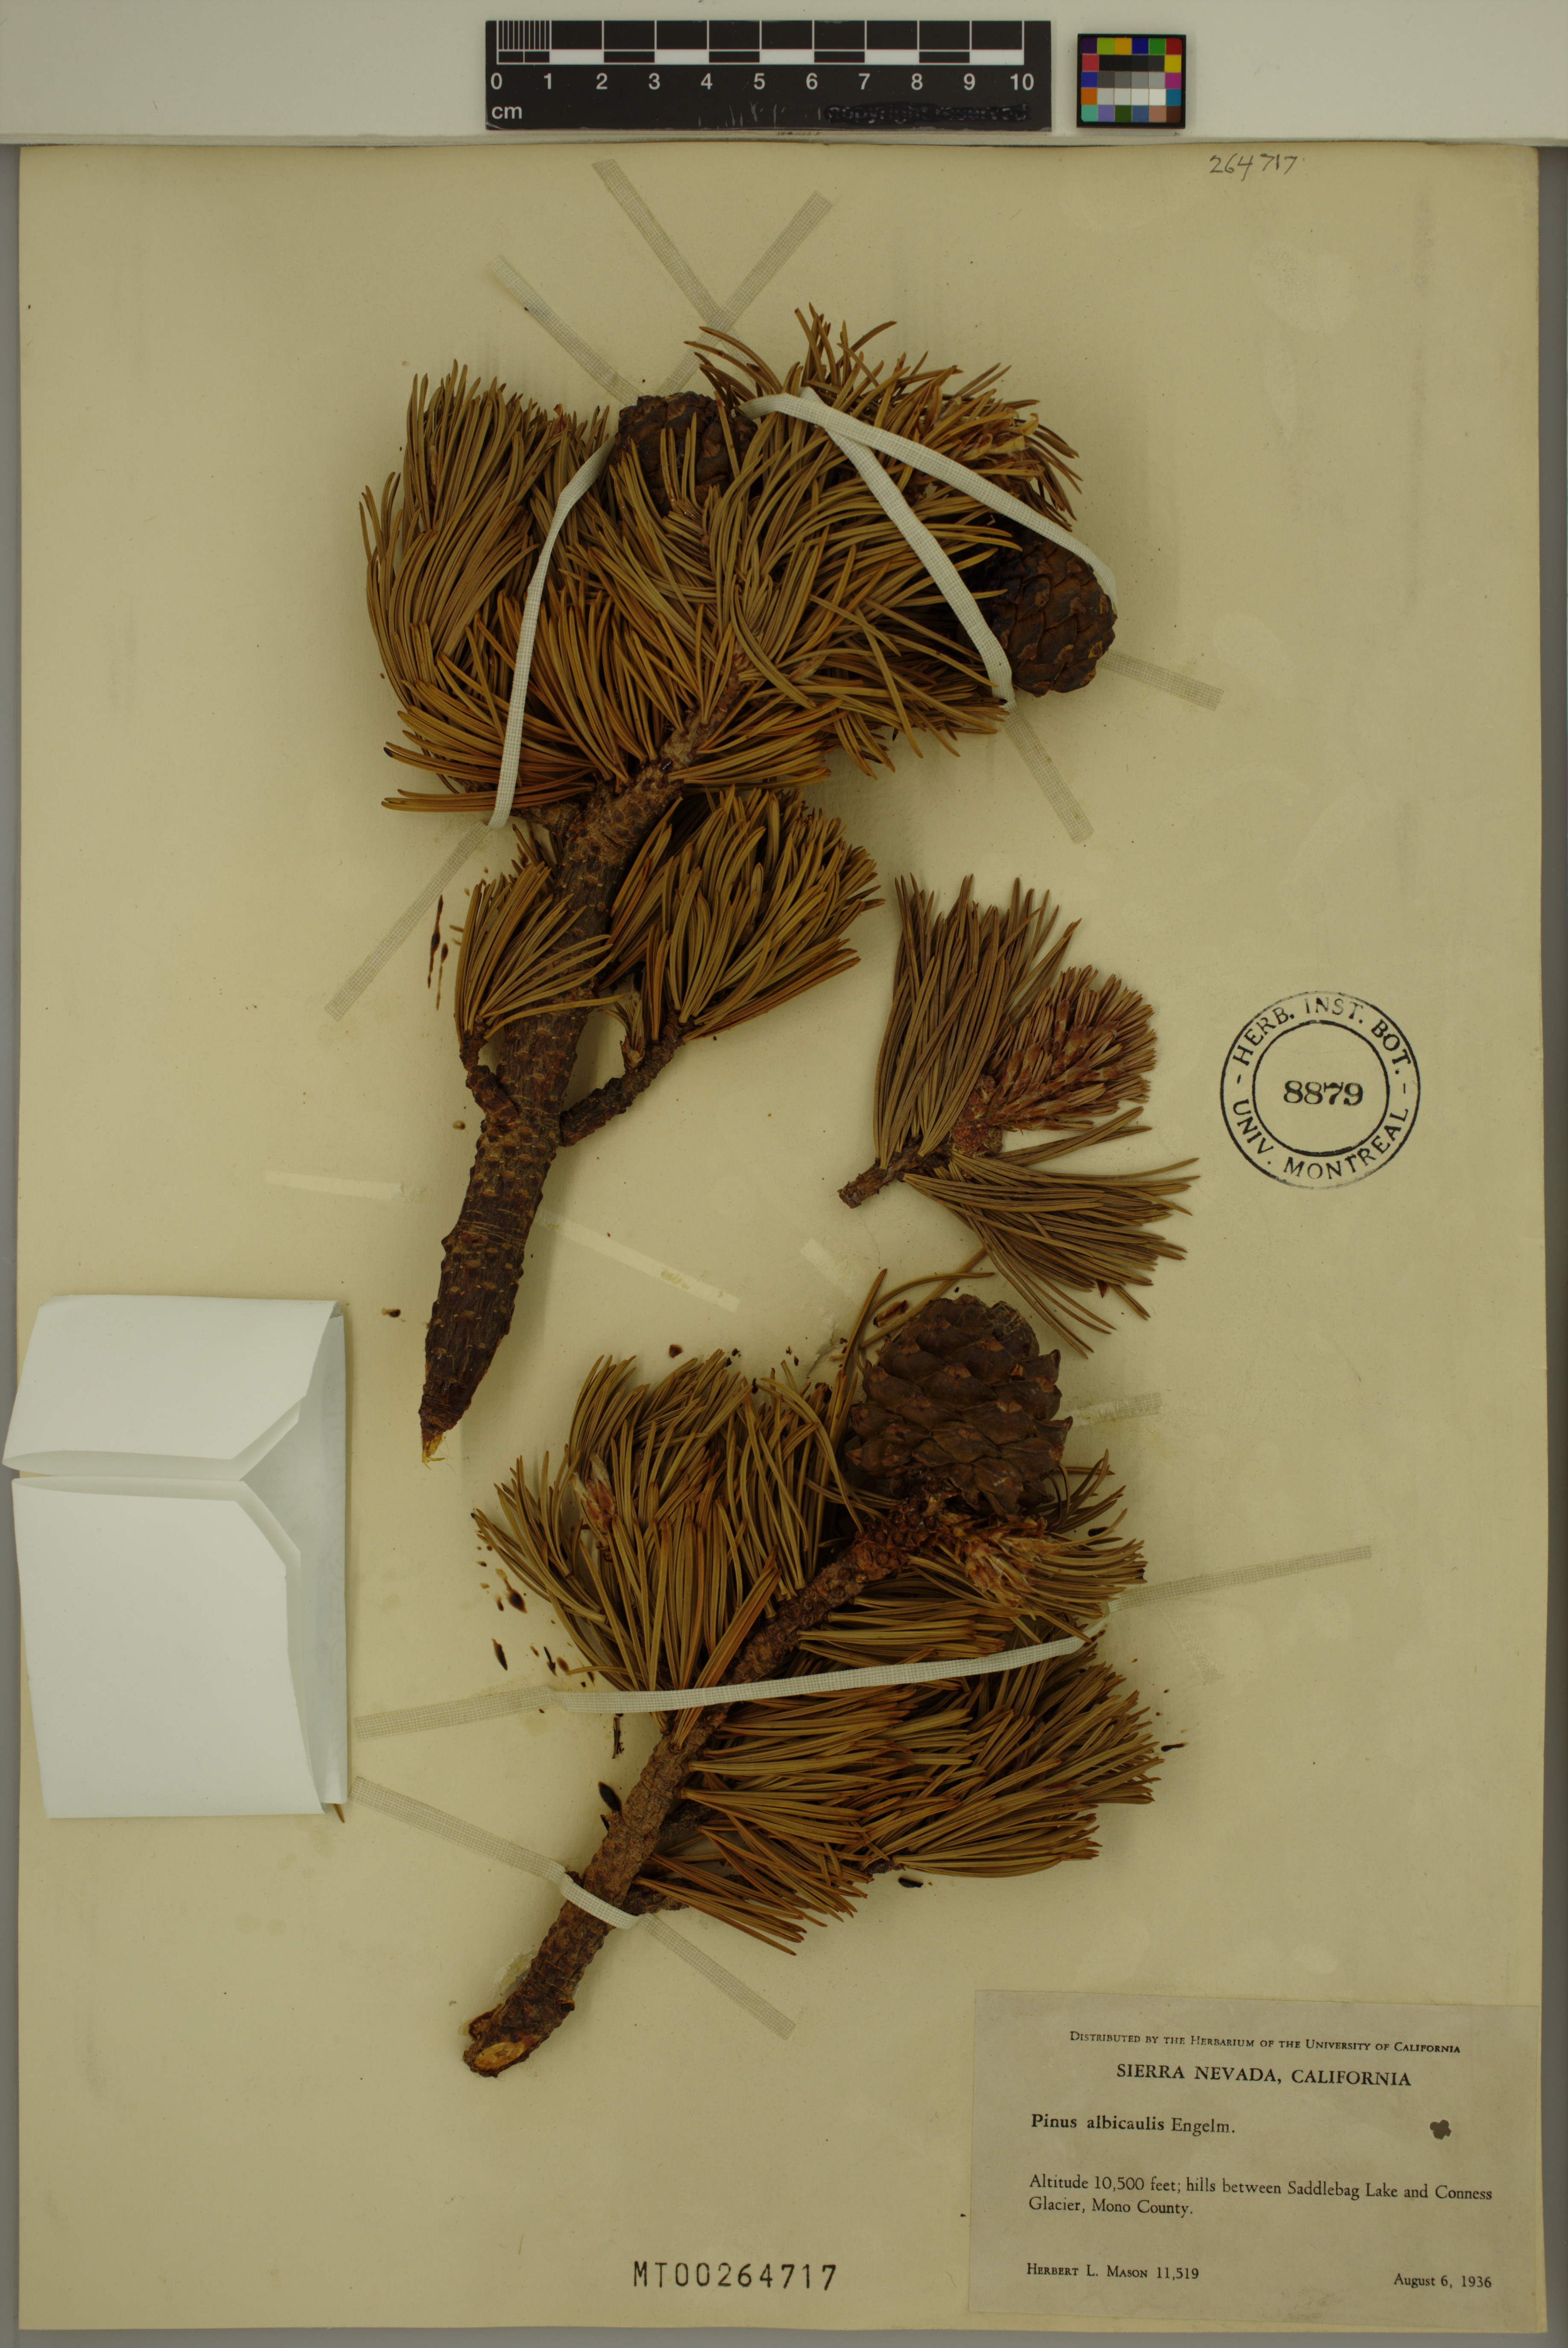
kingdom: Plantae
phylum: Tracheophyta
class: Pinopsida
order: Pinales
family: Pinaceae
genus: Pinus
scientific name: Pinus albicaulis
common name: Whitebark pine
